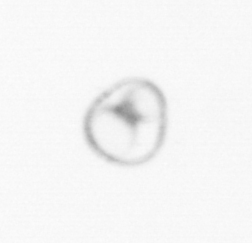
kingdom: Chromista
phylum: Myzozoa
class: Dinophyceae
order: Noctilucales
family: Noctilucaceae
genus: Noctiluca
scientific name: Noctiluca scintillans
